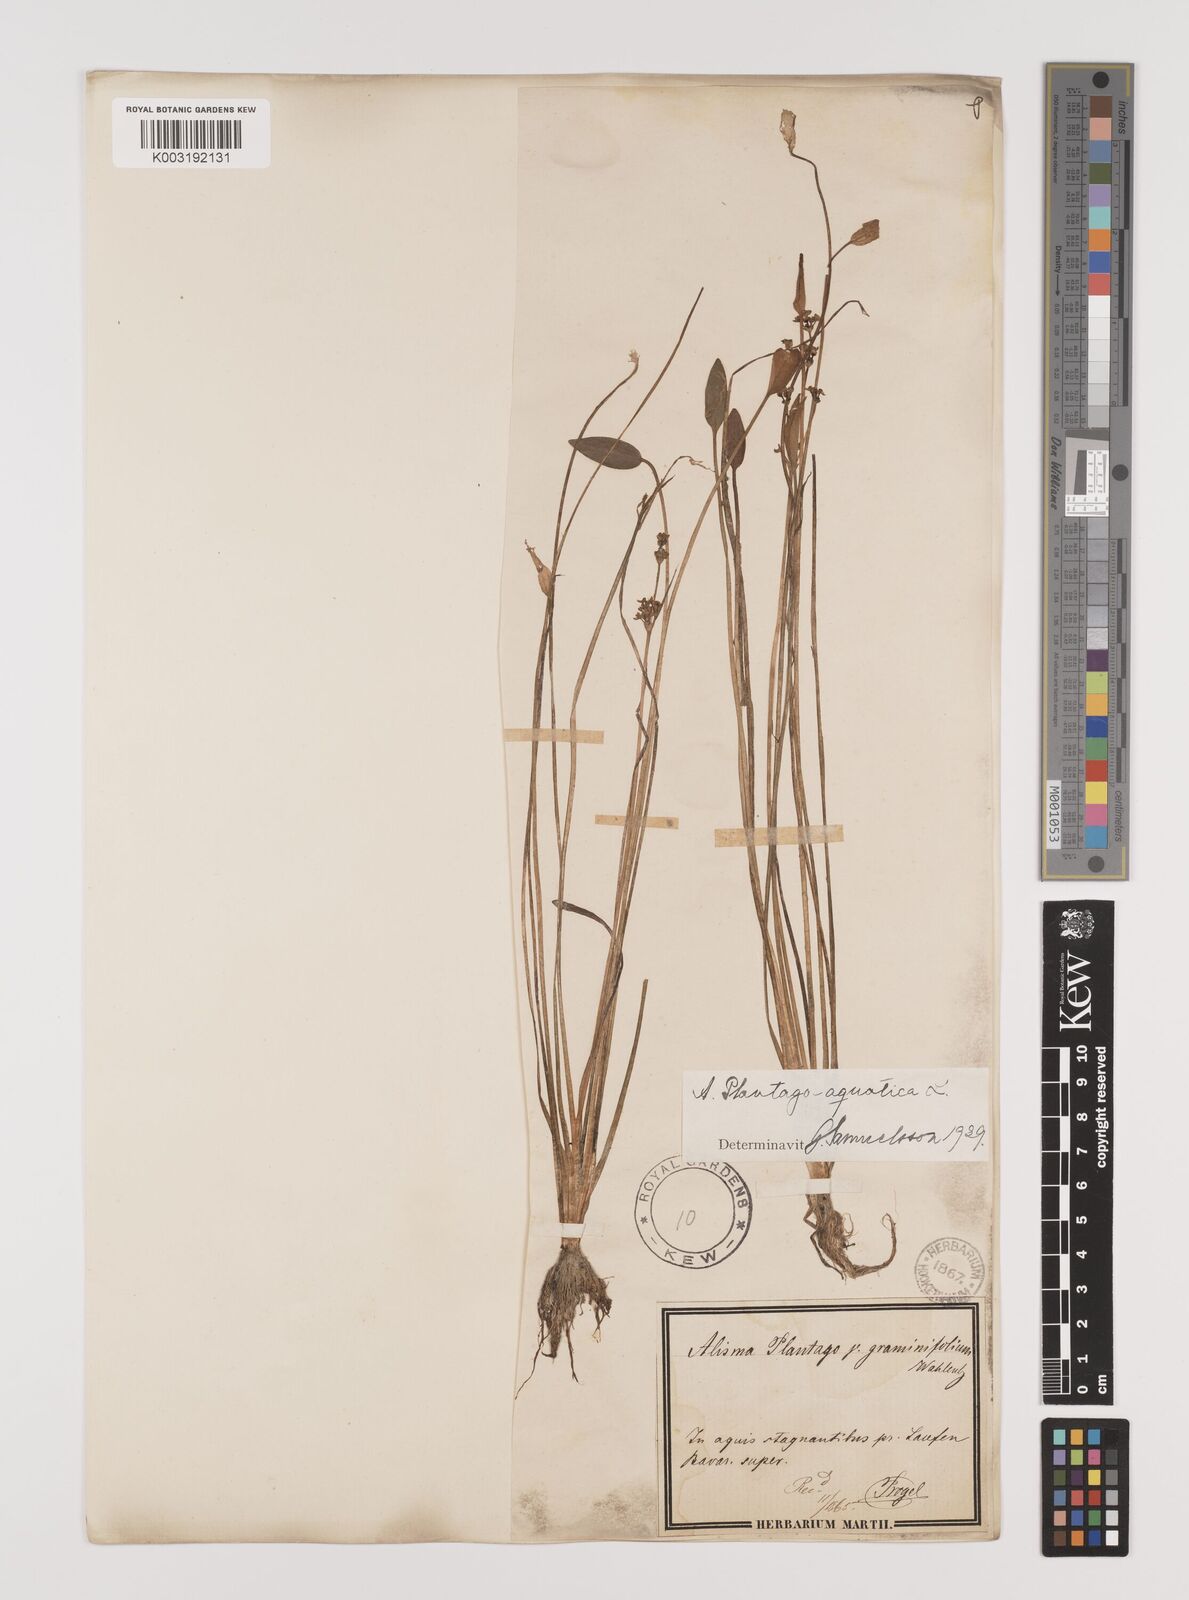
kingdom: Plantae
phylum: Tracheophyta
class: Liliopsida
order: Alismatales
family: Alismataceae
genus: Alisma
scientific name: Alisma plantago-aquatica
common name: Water-plantain
